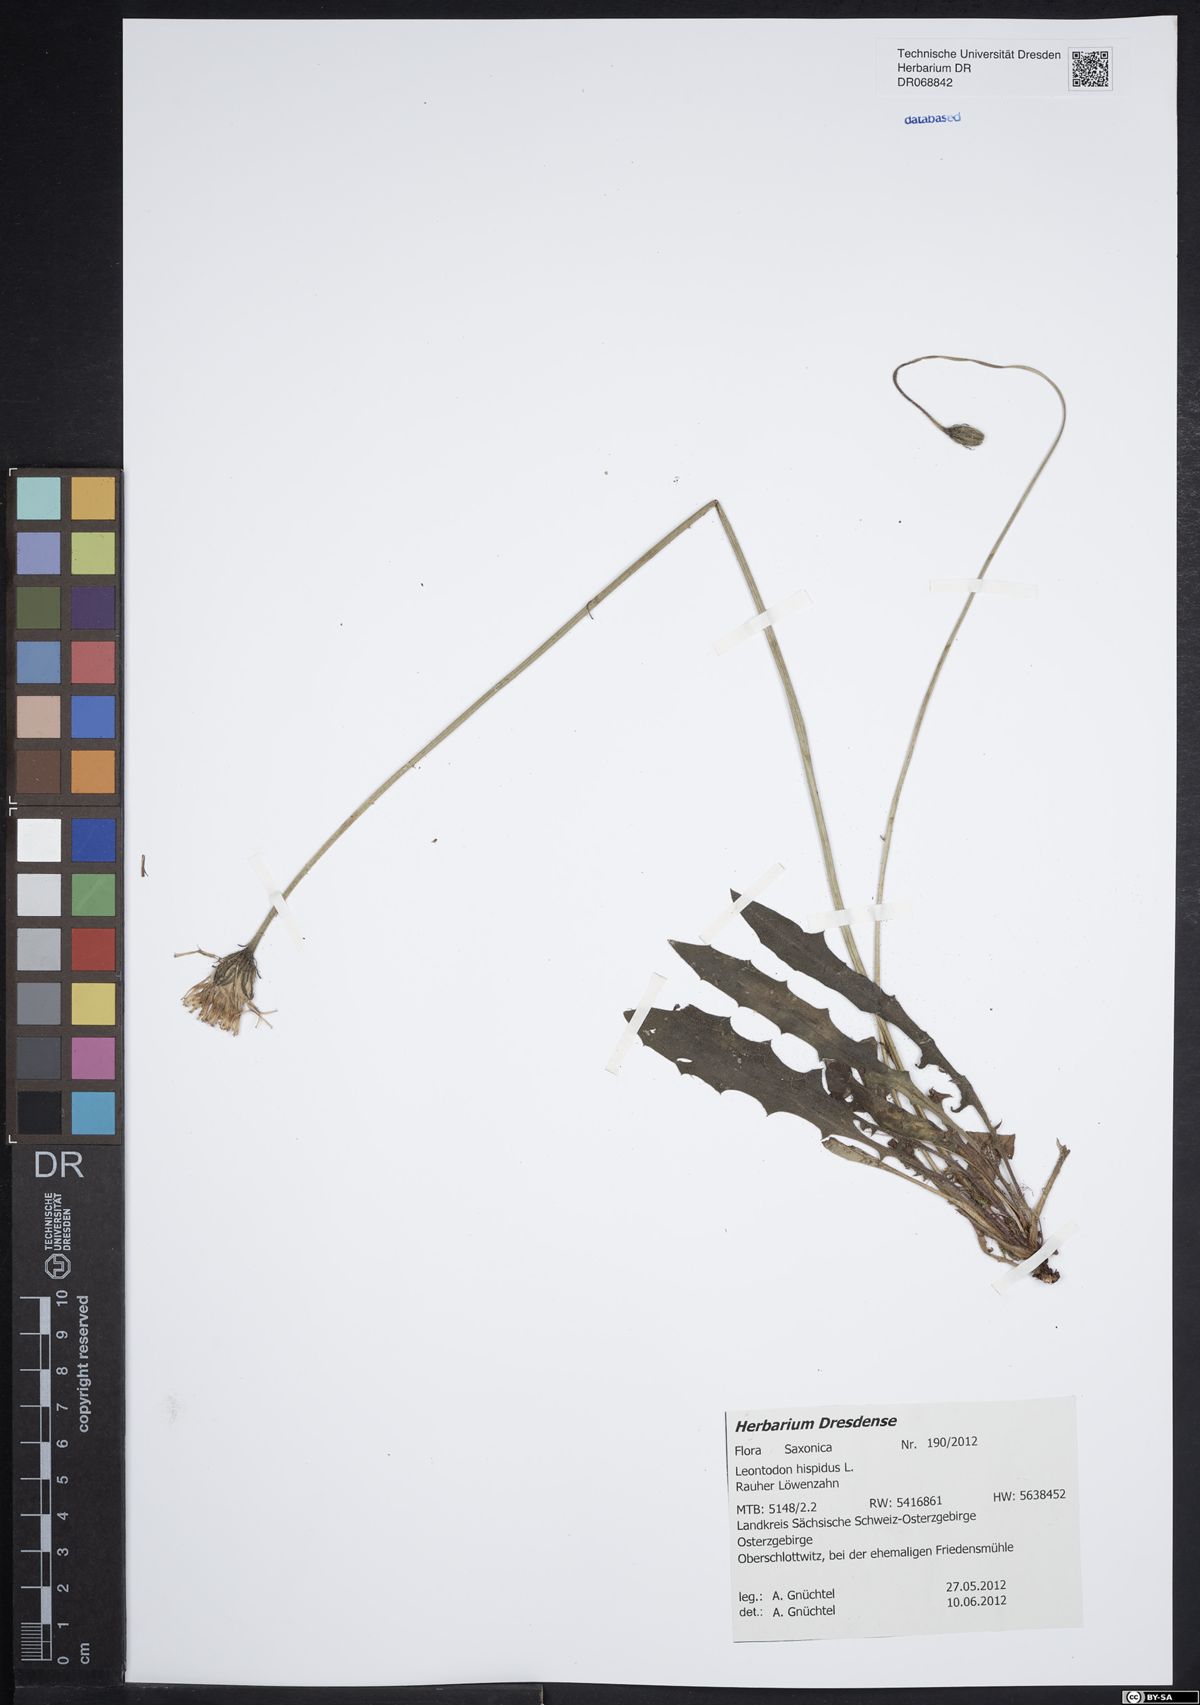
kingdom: Plantae
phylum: Tracheophyta
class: Magnoliopsida
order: Asterales
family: Asteraceae
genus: Leontodon
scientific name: Leontodon hispidus
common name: Rough hawkbit
